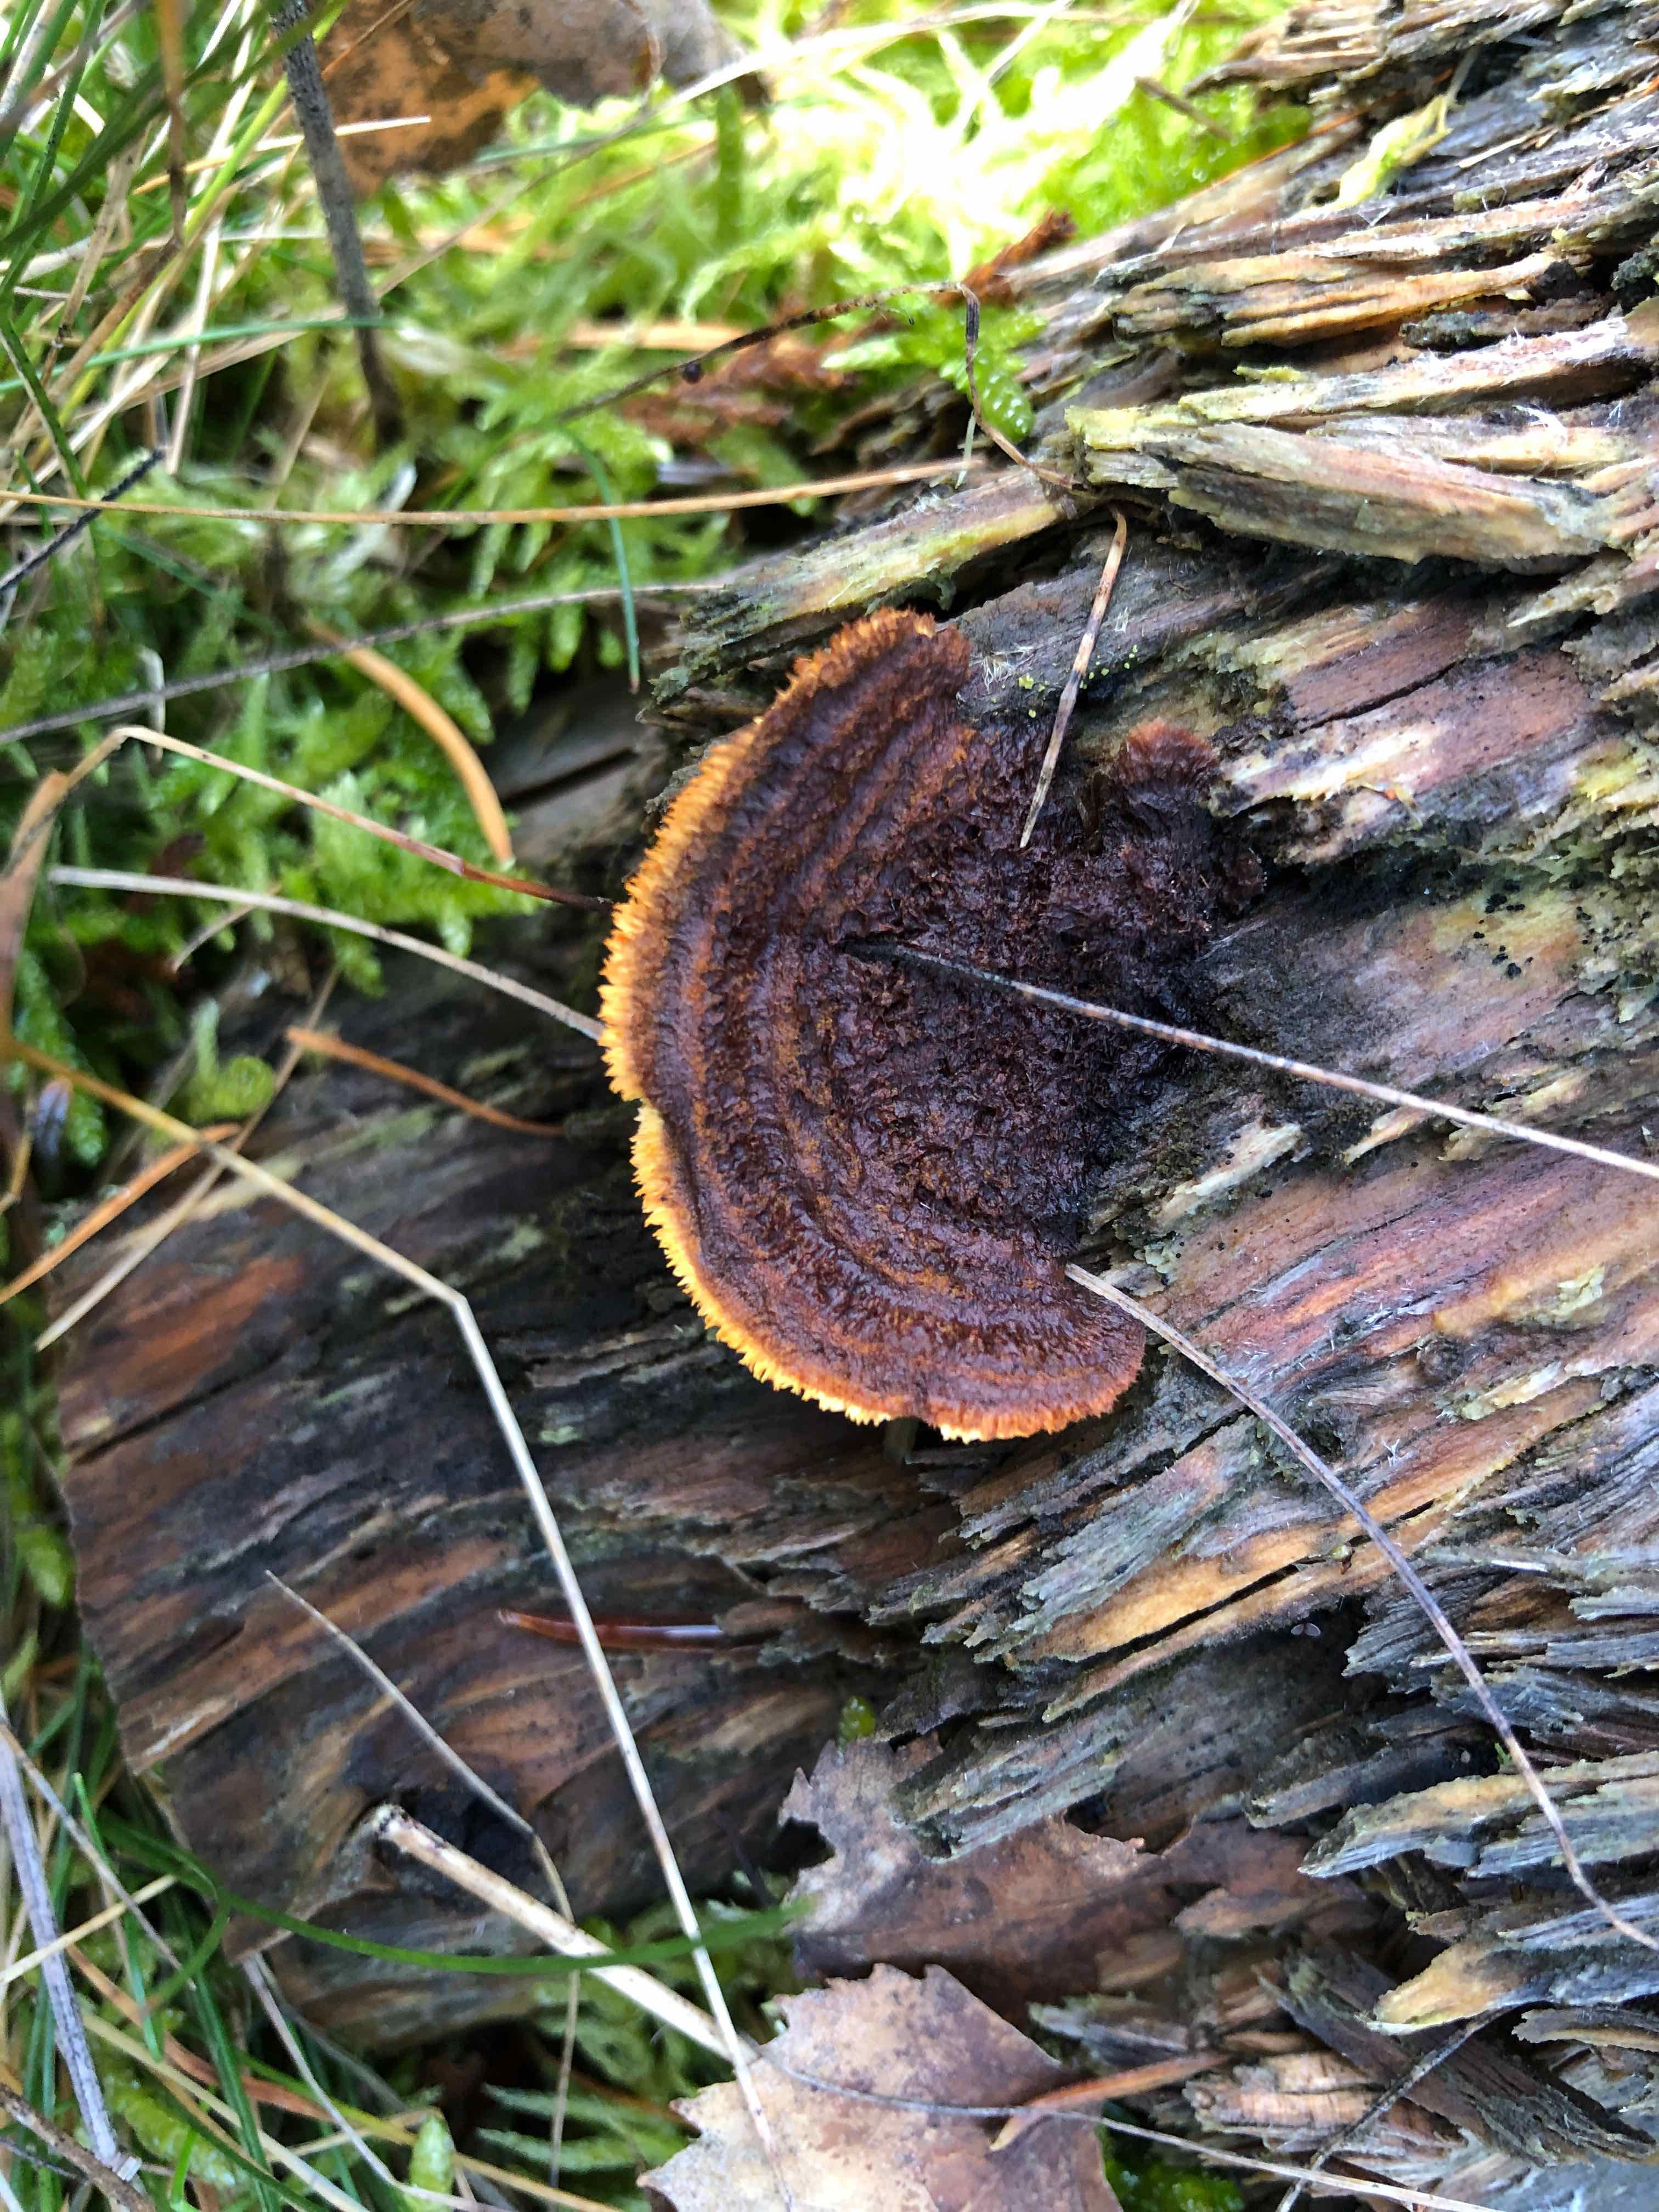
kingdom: Fungi
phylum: Basidiomycota
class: Agaricomycetes
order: Gloeophyllales
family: Gloeophyllaceae
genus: Gloeophyllum
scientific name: Gloeophyllum sepiarium
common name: fyrre-korkhat
